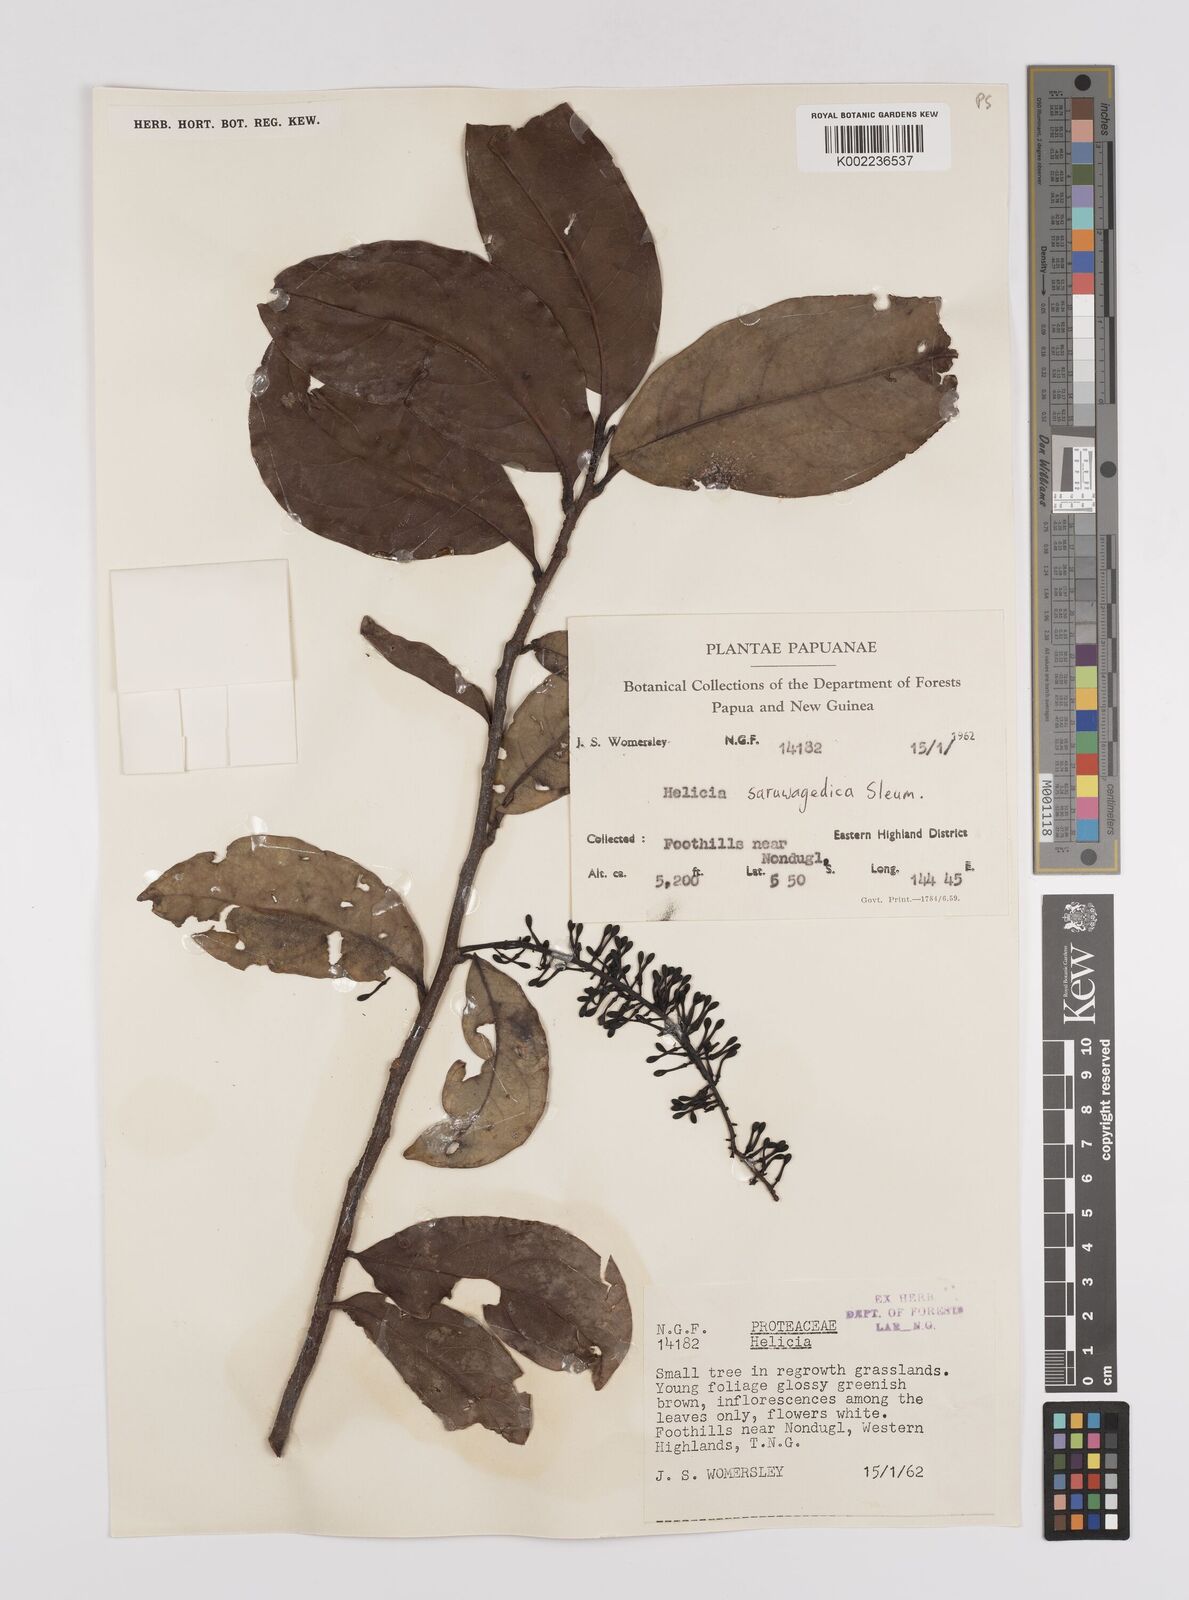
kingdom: Plantae
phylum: Tracheophyta
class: Magnoliopsida
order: Proteales
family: Proteaceae
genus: Helicia
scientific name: Helicia saruwagedica
